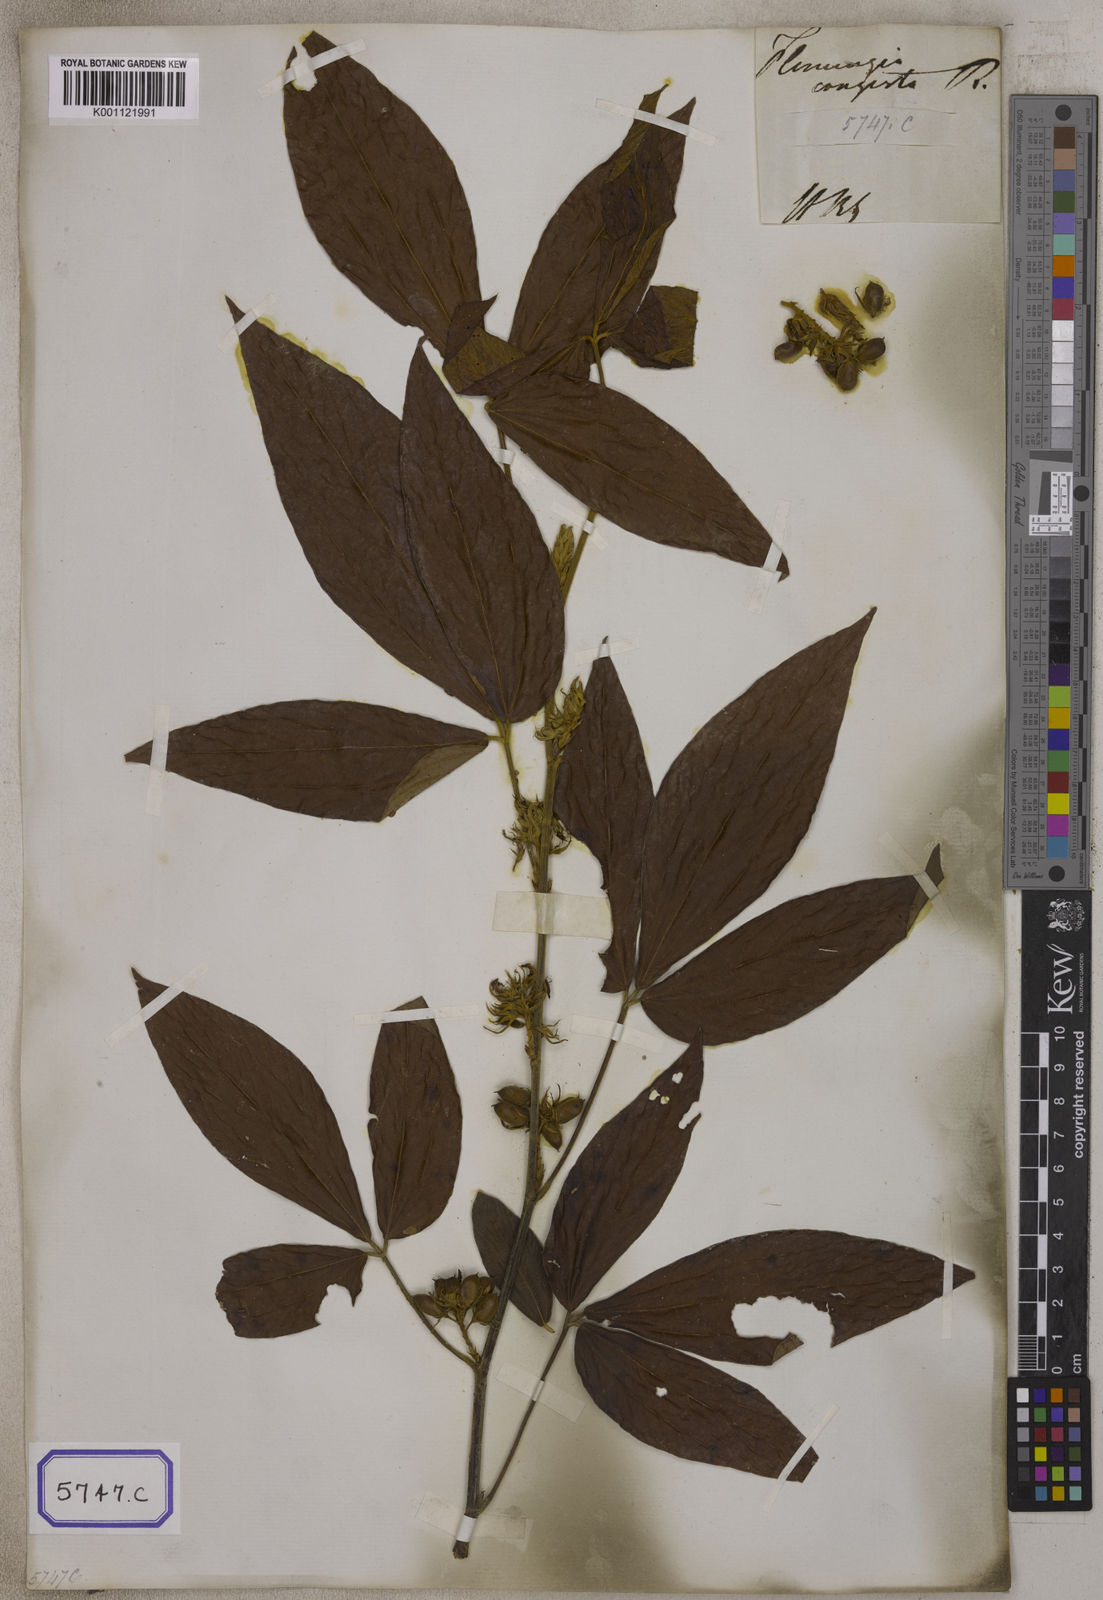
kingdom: Plantae
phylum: Tracheophyta
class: Magnoliopsida
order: Fabales
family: Fabaceae
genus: Flemingia
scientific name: Flemingia
